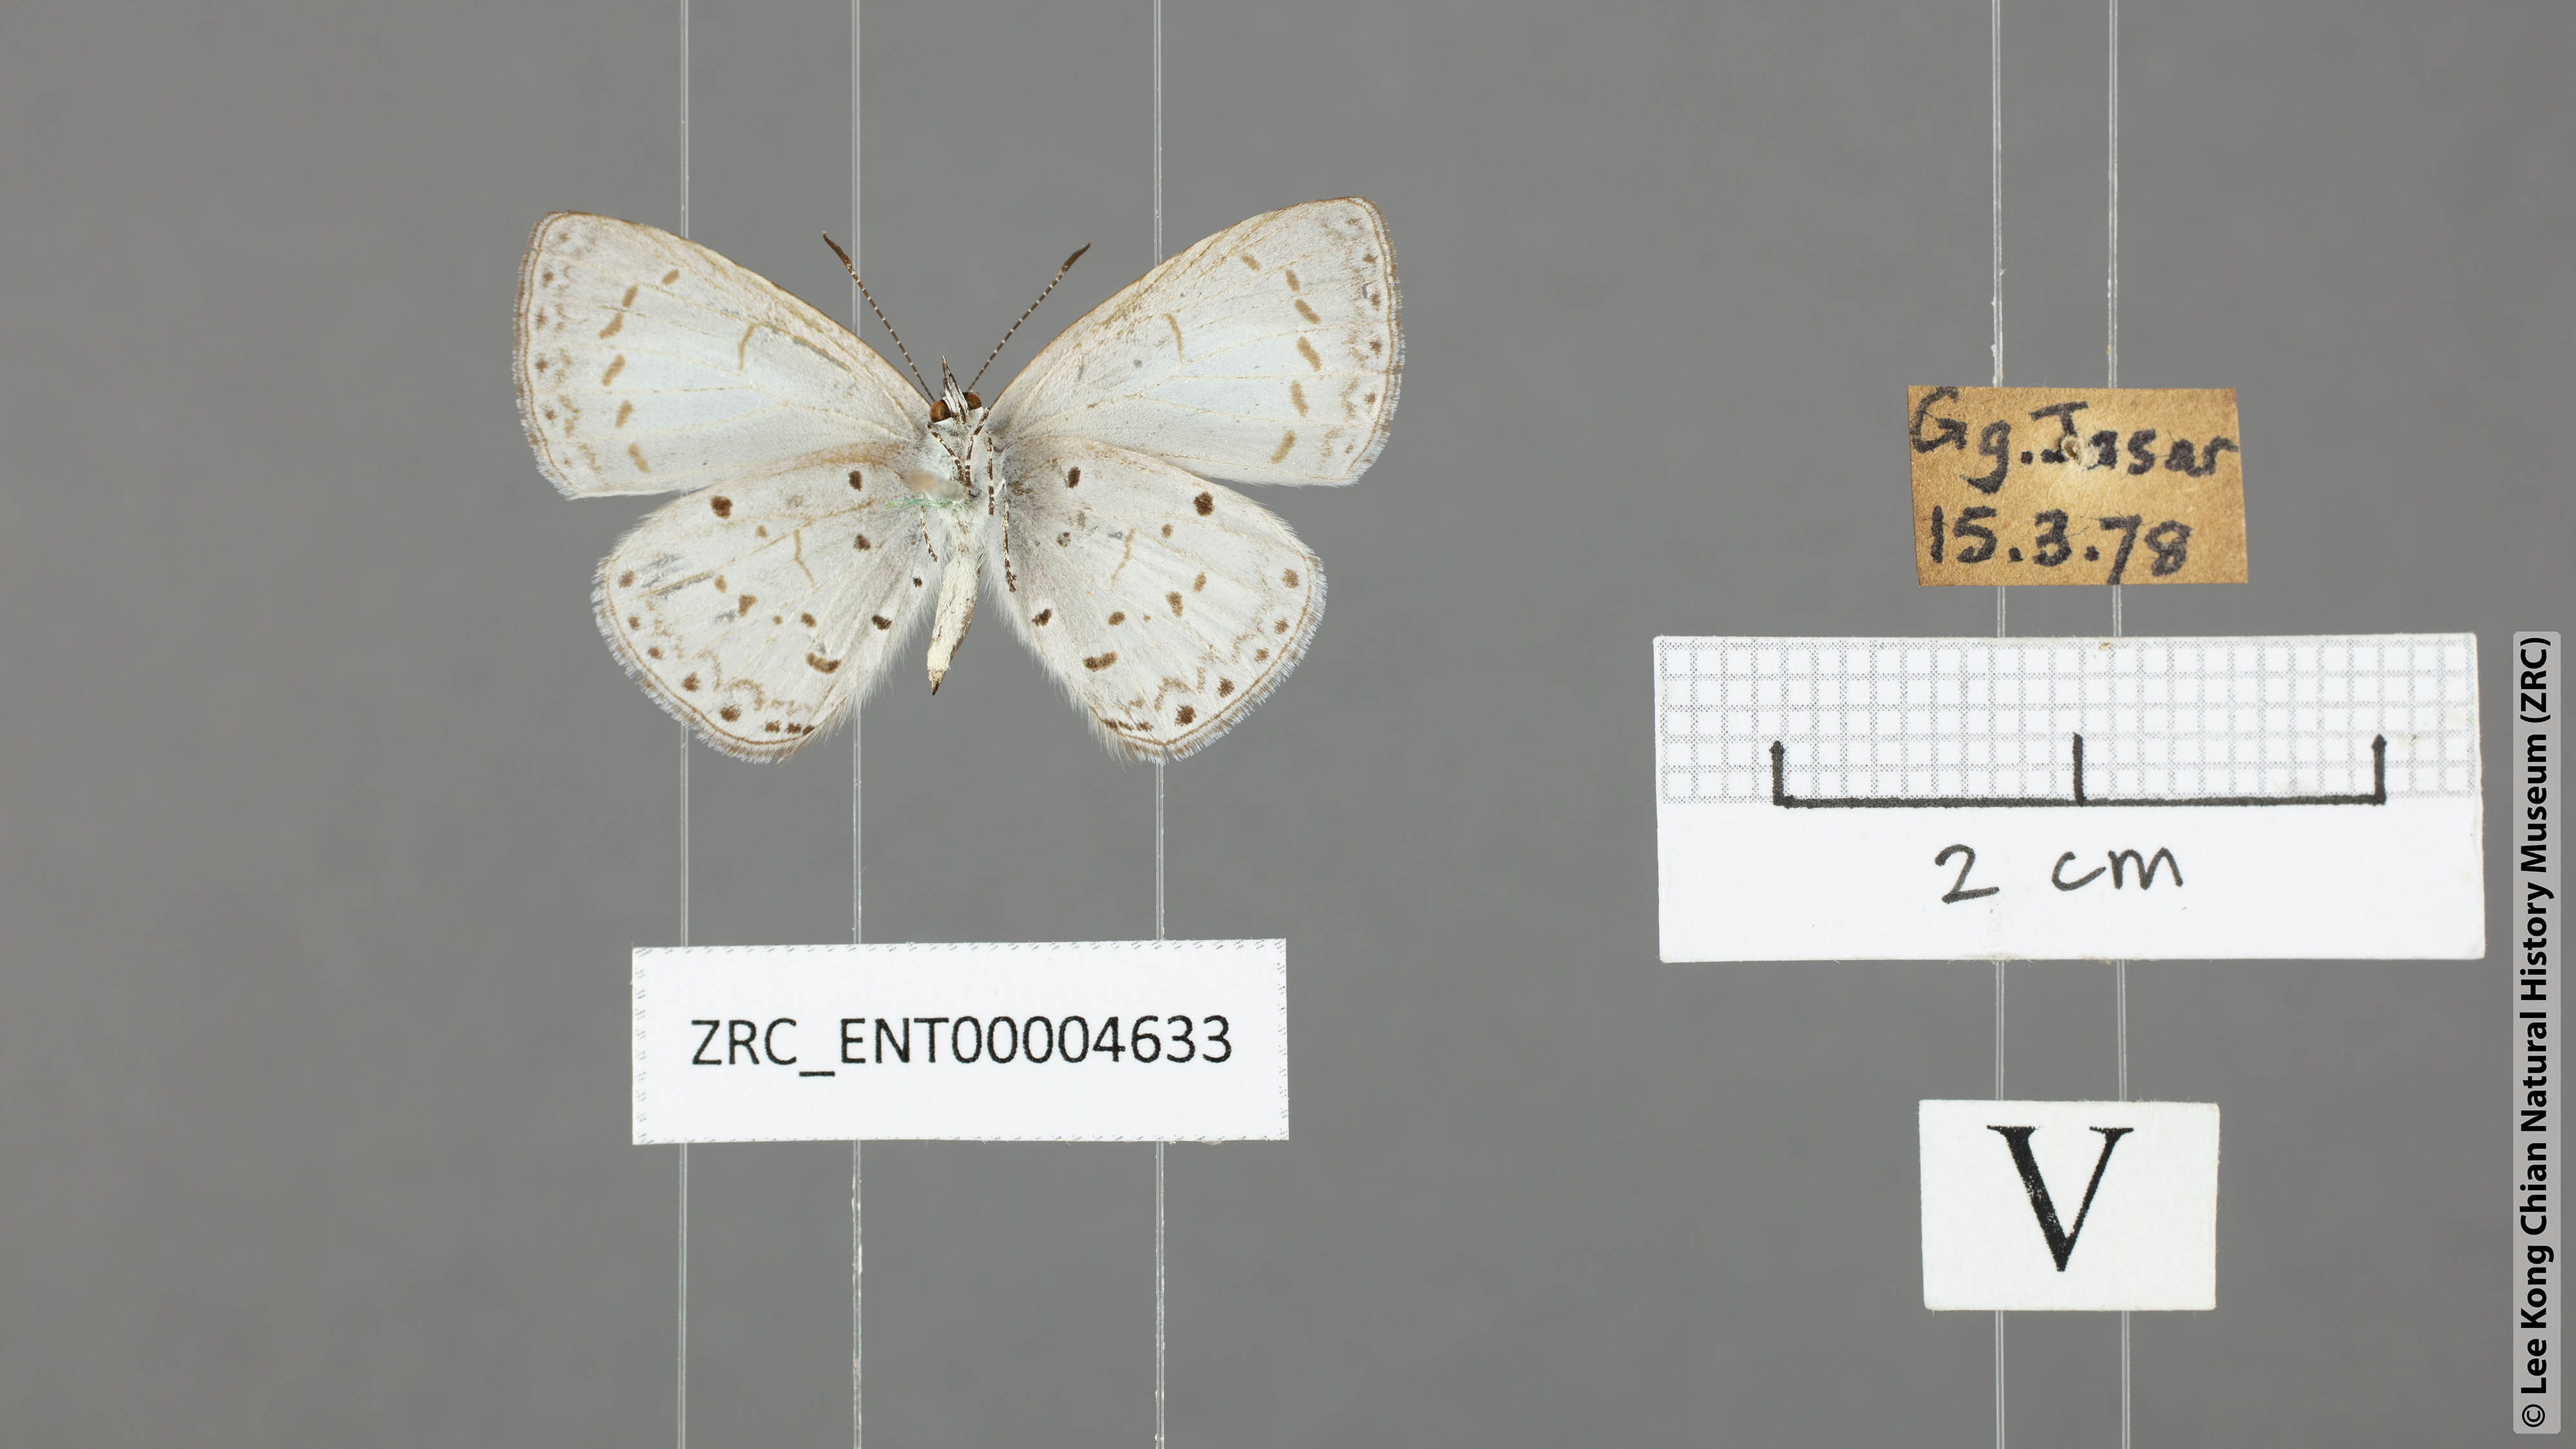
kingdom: Animalia
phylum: Arthropoda
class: Insecta
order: Lepidoptera
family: Lycaenidae
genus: Udara
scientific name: Udara
